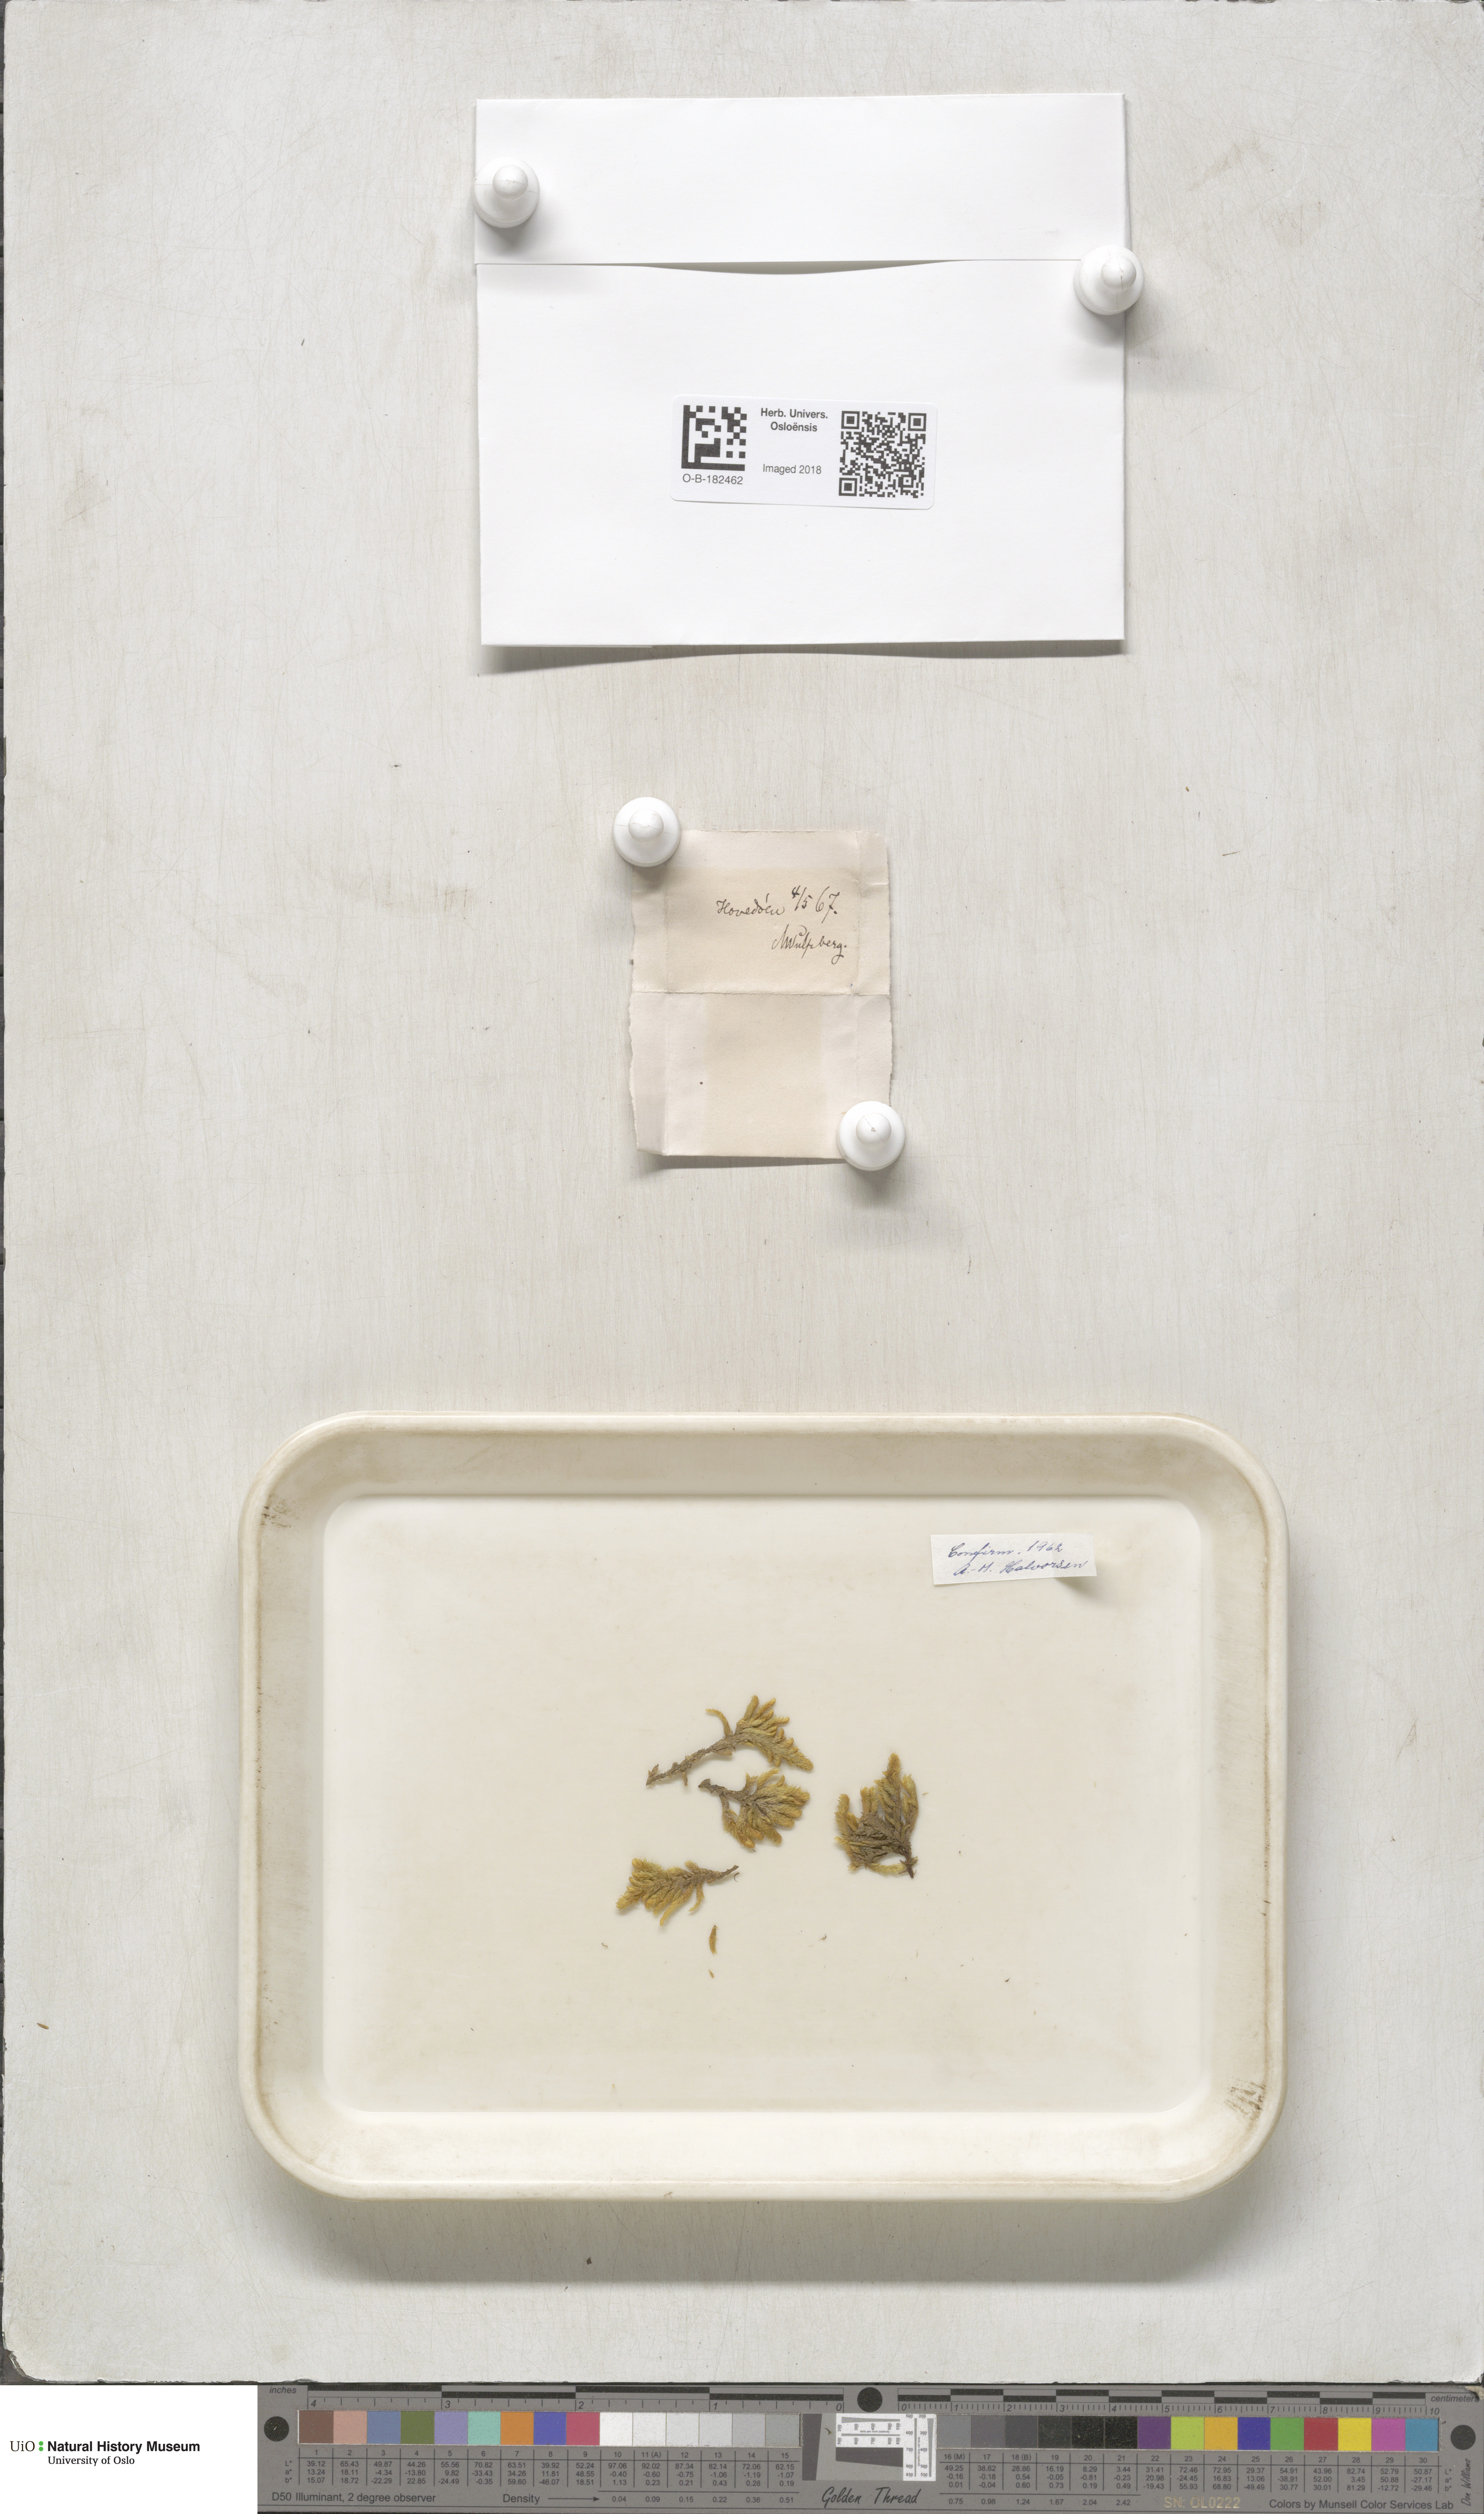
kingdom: Plantae
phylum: Bryophyta
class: Bryopsida
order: Hypnales
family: Rhytidiaceae
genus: Rhytidium
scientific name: Rhytidium rugosum
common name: Wrinkle-leaved moss
